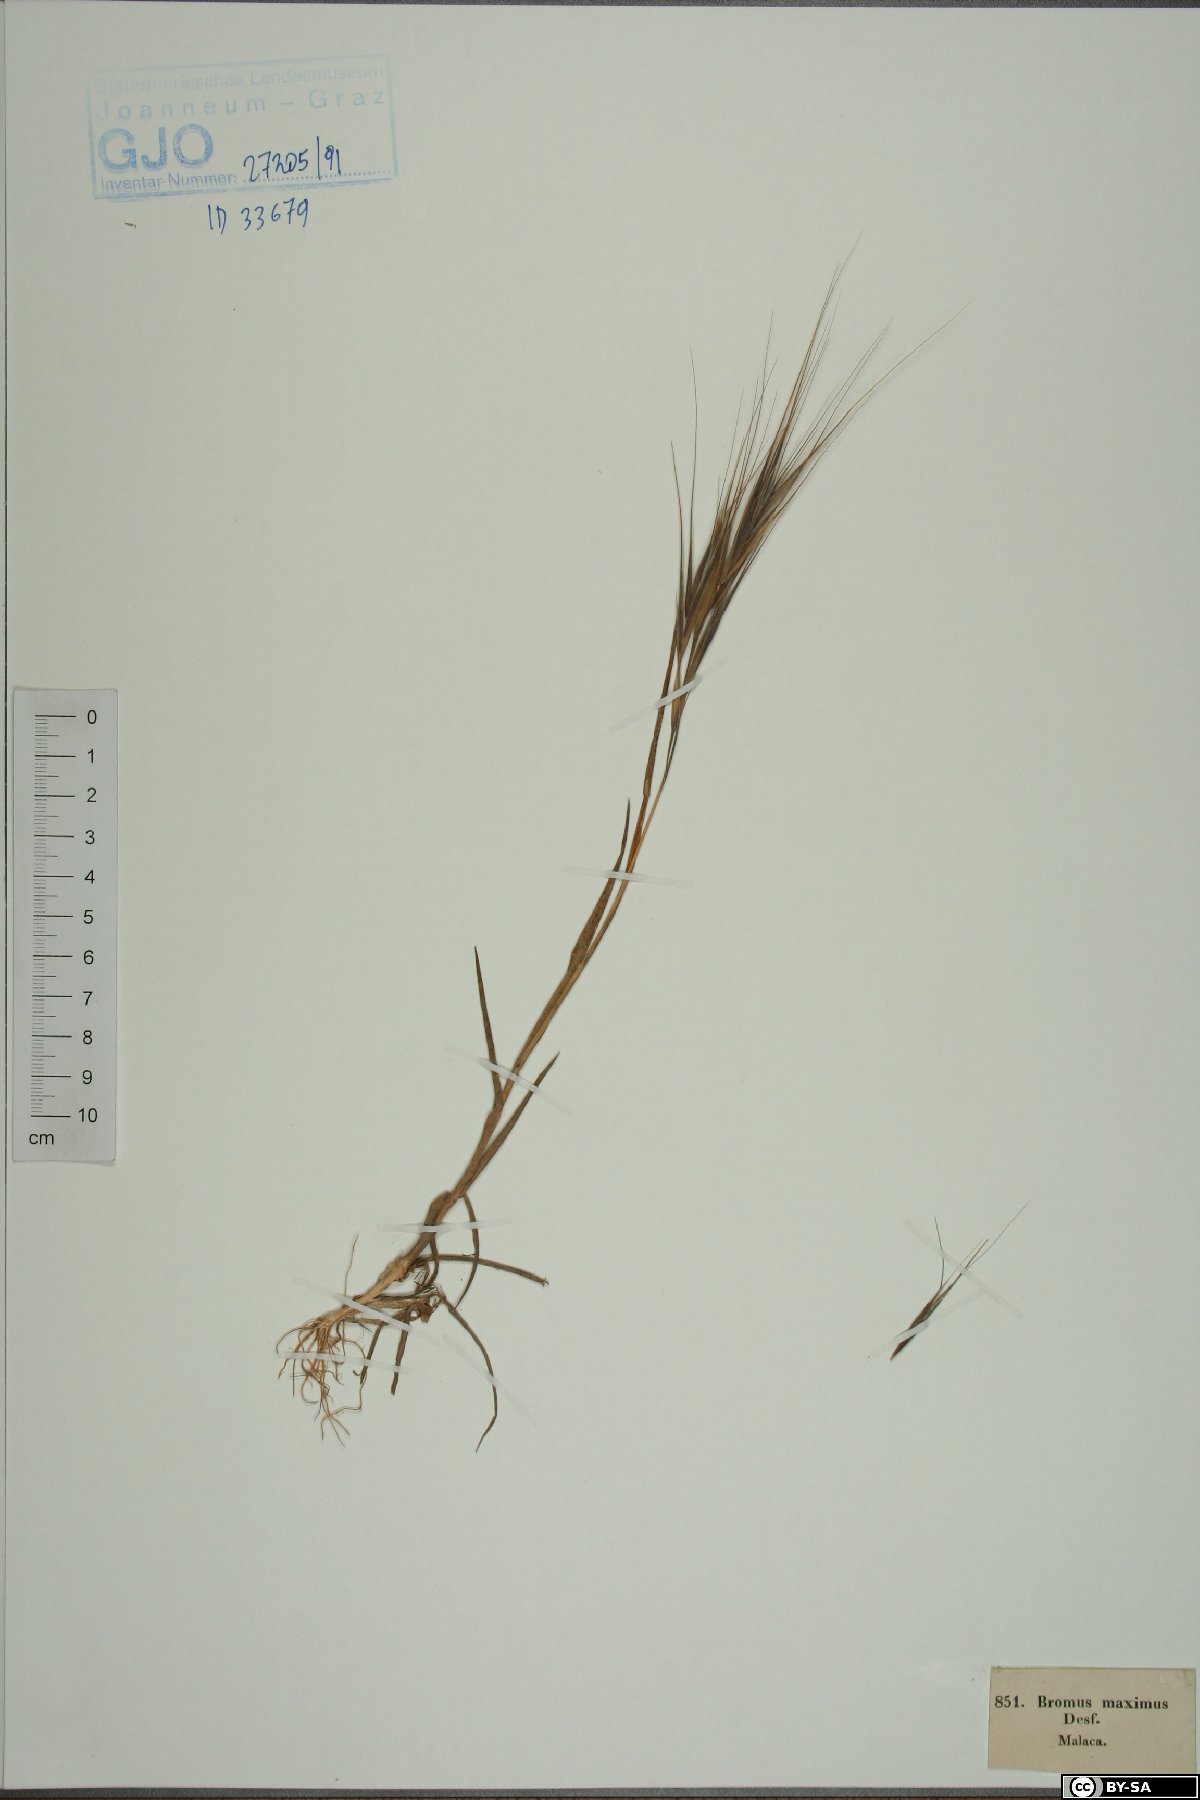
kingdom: Plantae
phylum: Tracheophyta
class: Liliopsida
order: Poales
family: Poaceae
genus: Bromus
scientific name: Bromus rigidus
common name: Ripgut brome
